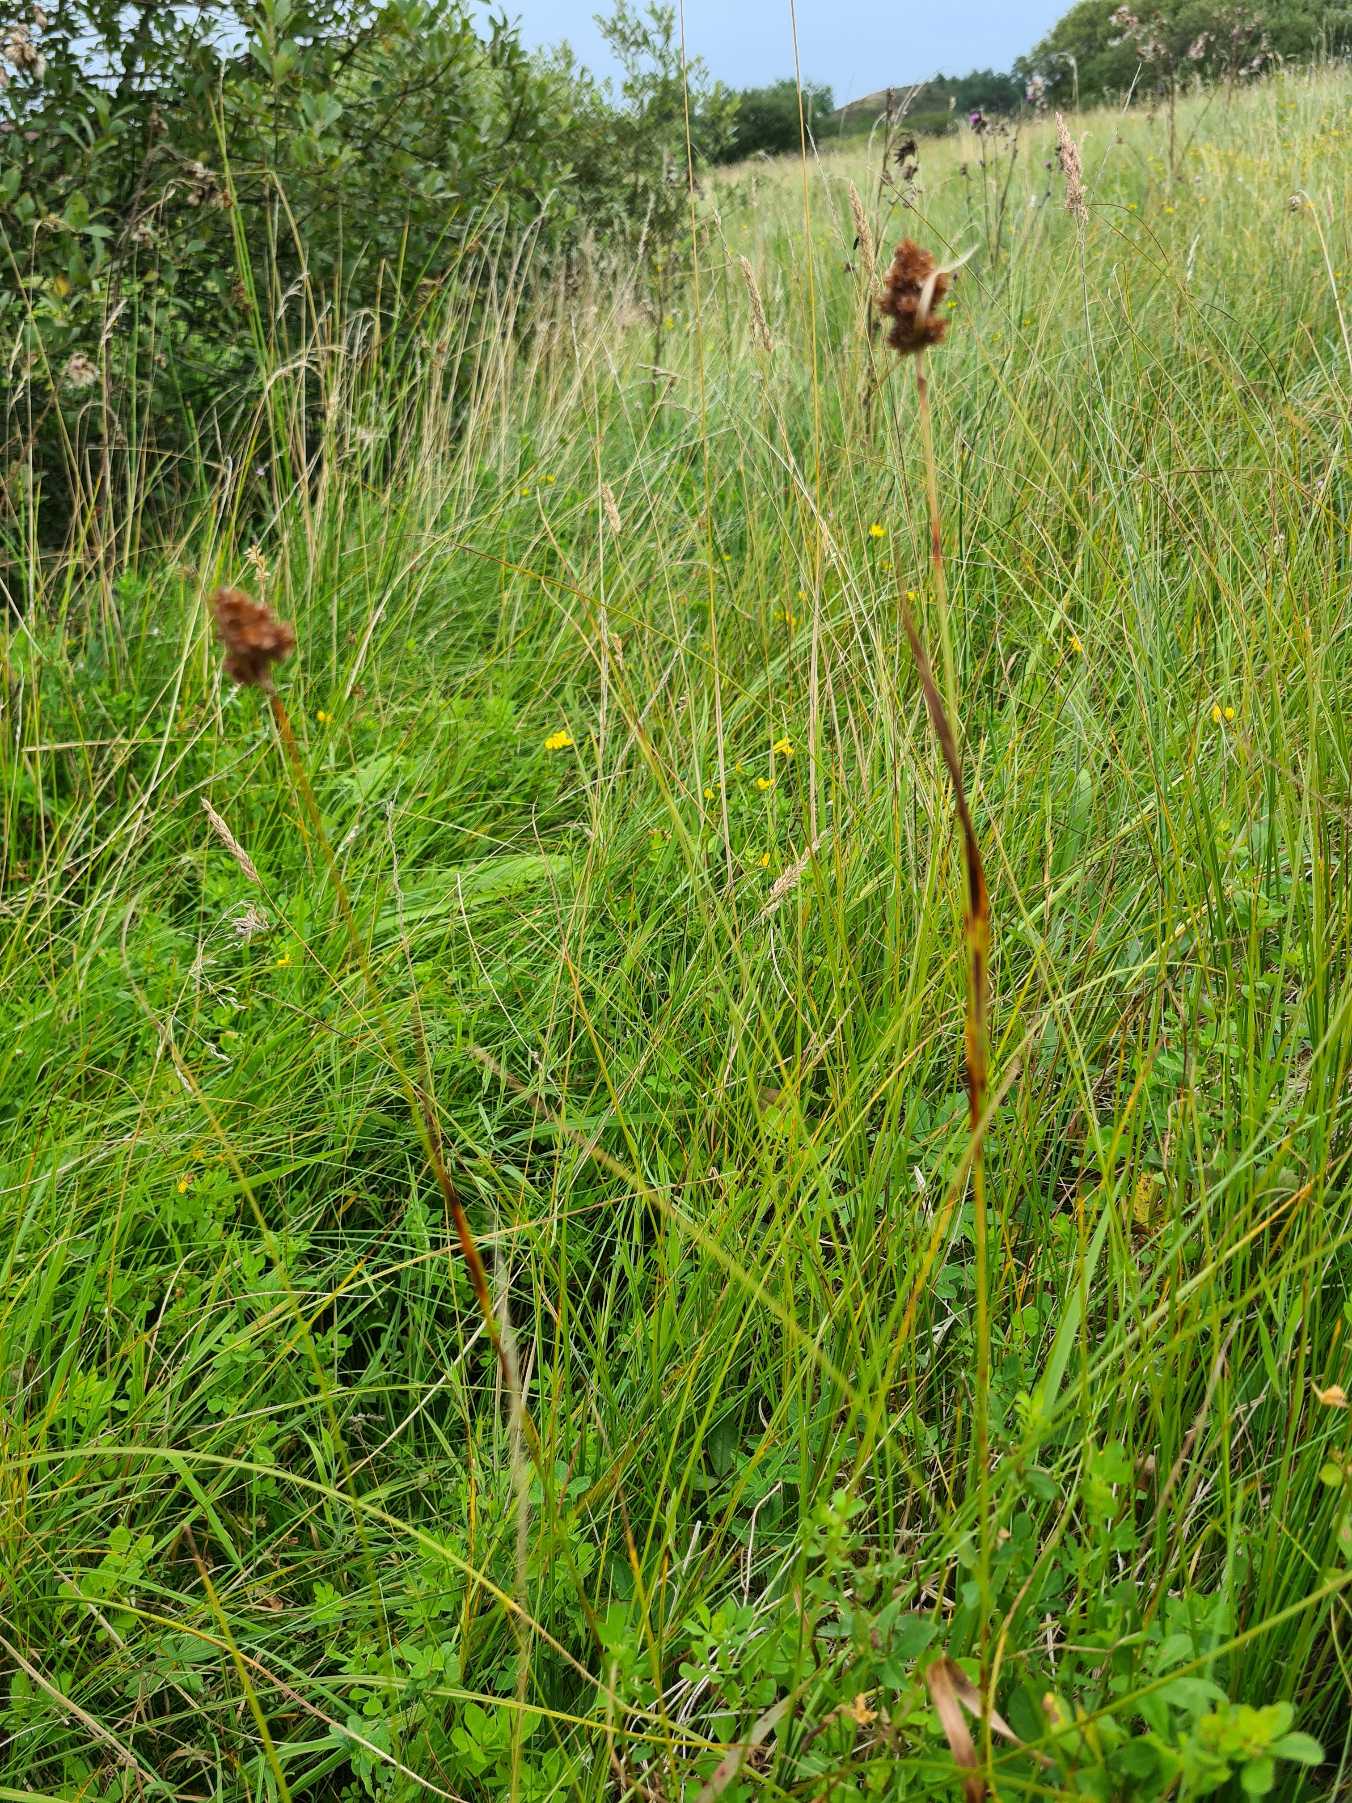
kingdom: Plantae
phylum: Tracheophyta
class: Liliopsida
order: Poales
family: Juncaceae
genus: Luzula
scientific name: Luzula congesta
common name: Hoved-frytle
